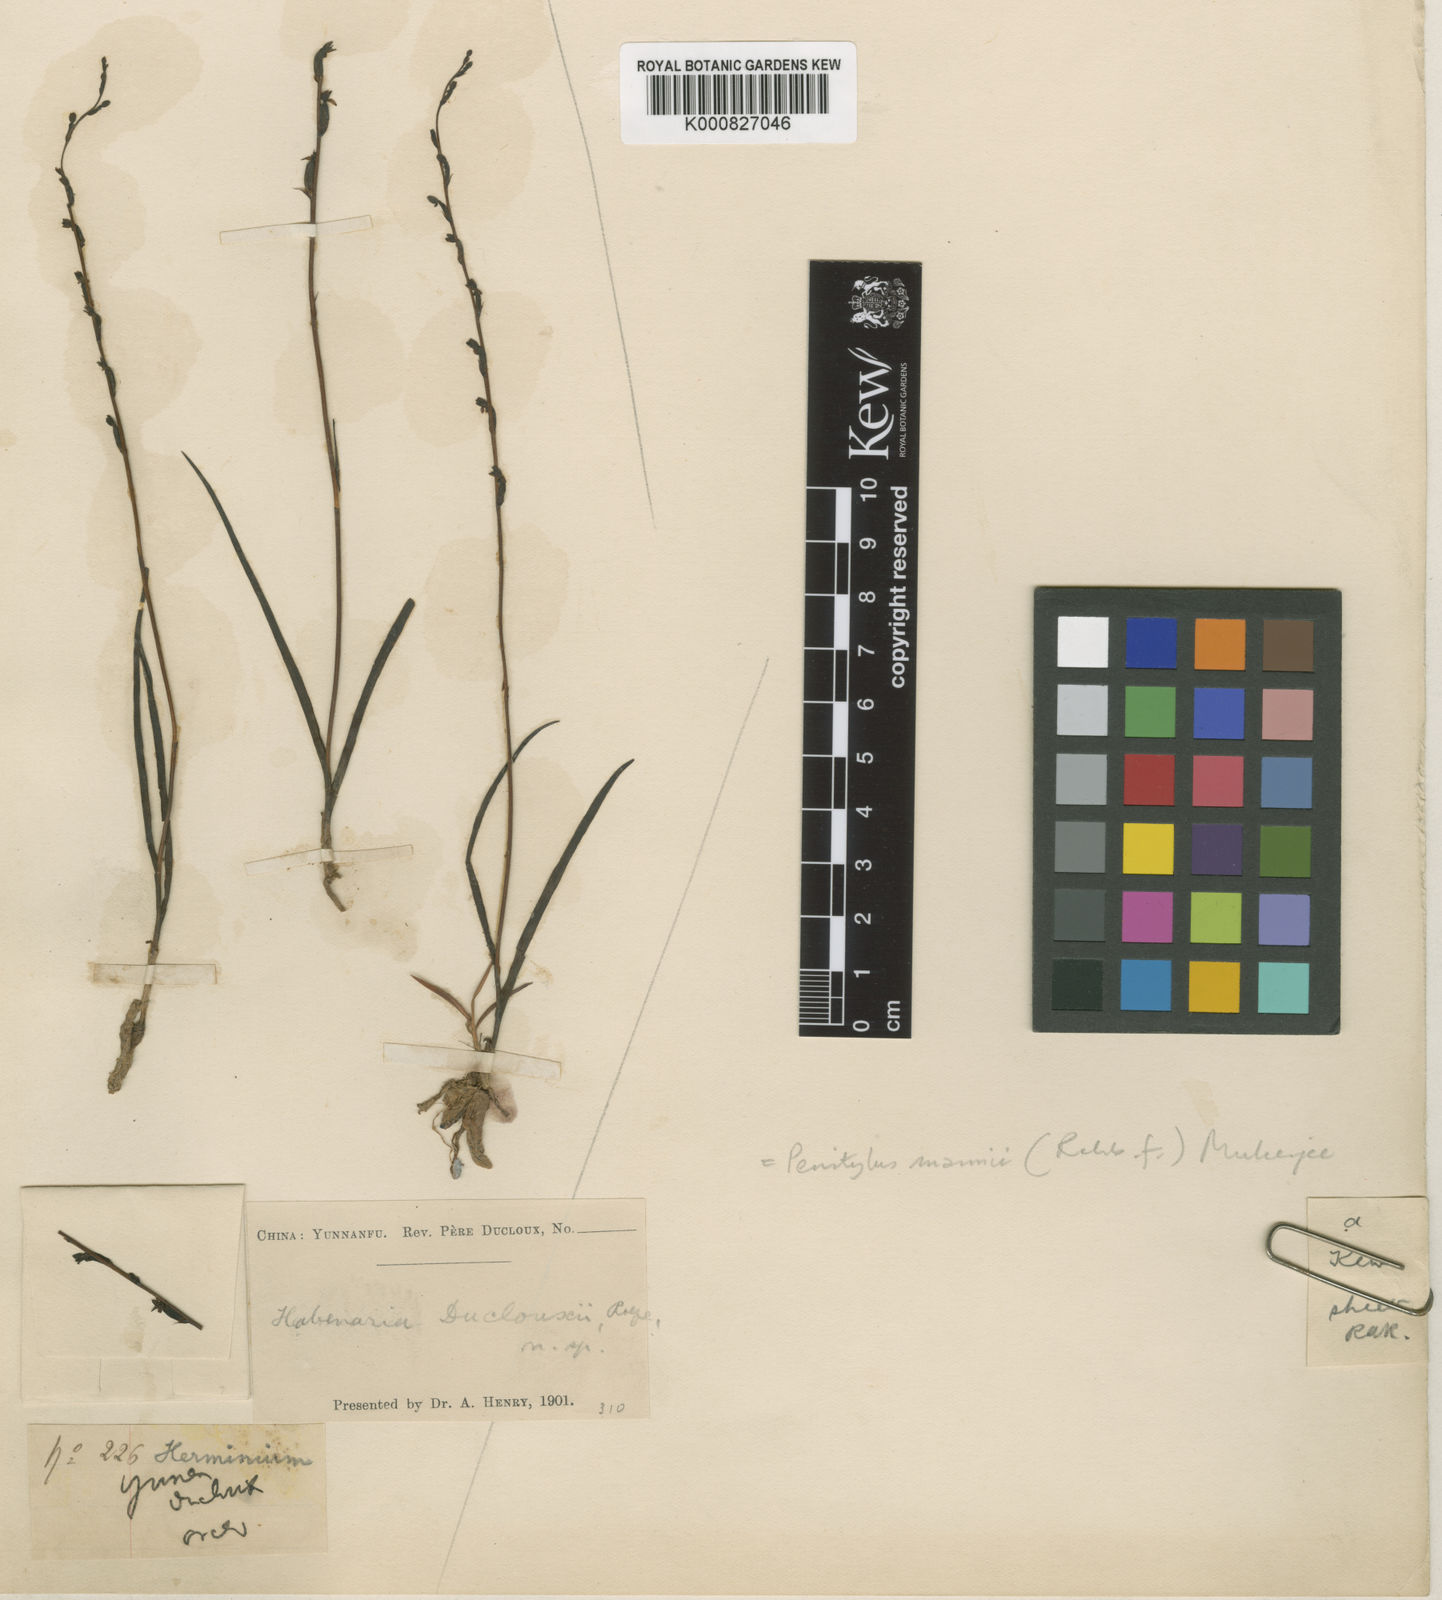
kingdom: Plantae
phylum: Tracheophyta
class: Liliopsida
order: Asparagales
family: Orchidaceae
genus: Herminium
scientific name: Herminium mannii
